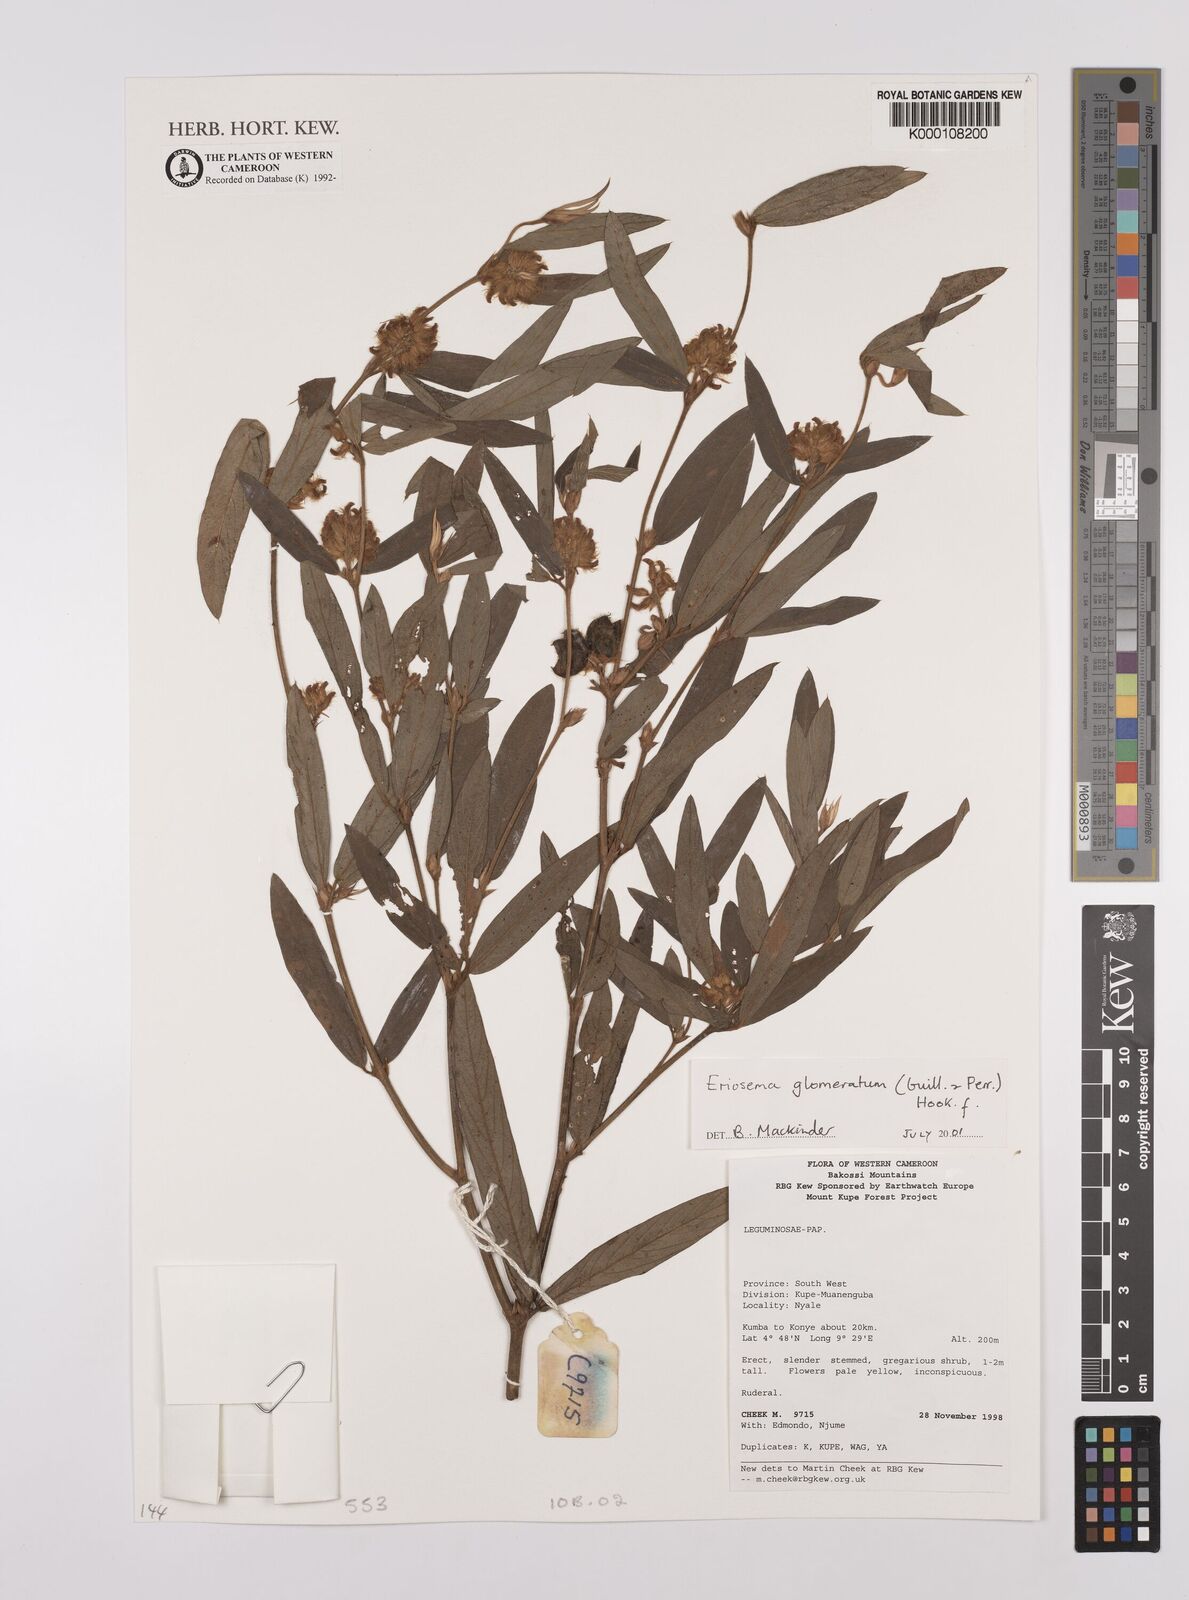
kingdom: Plantae
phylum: Tracheophyta
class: Magnoliopsida
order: Fabales
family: Fabaceae
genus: Eriosema
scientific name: Eriosema glomeratum
